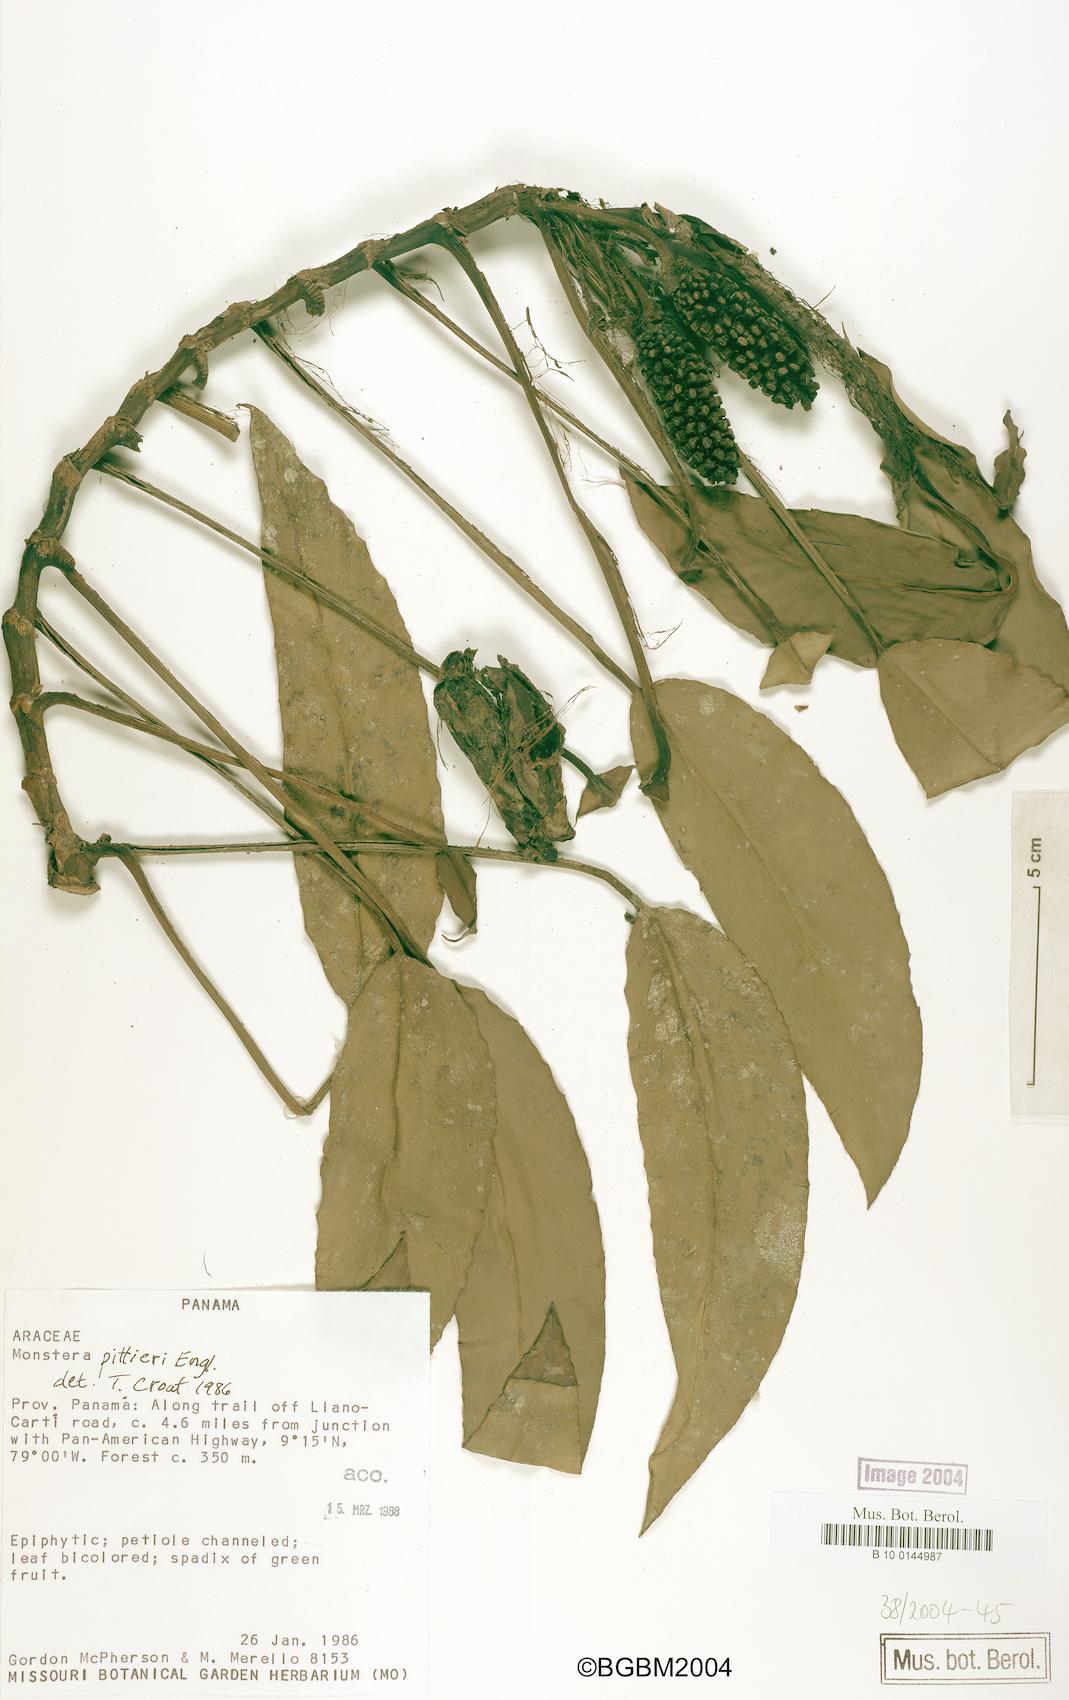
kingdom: Plantae
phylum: Tracheophyta
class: Liliopsida
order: Alismatales
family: Araceae
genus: Monstera
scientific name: Monstera pittieri
